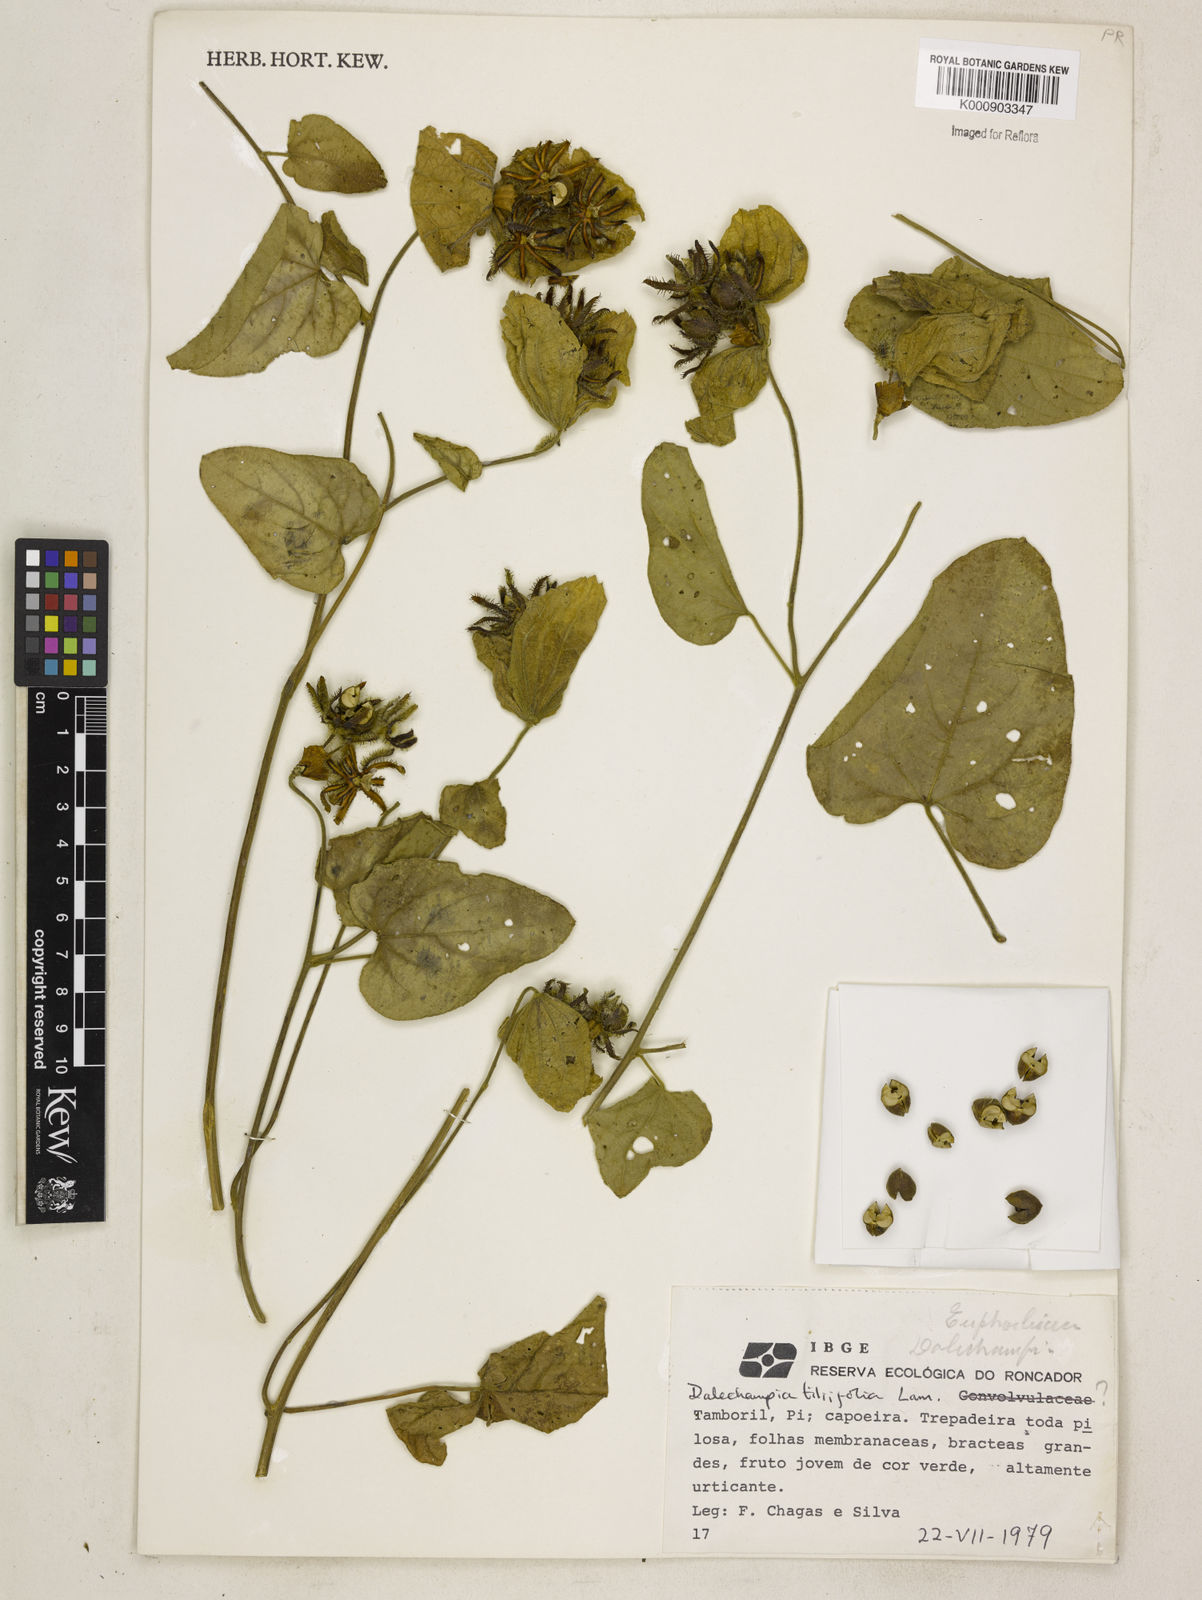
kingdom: Plantae
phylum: Tracheophyta
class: Magnoliopsida
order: Malpighiales
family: Euphorbiaceae
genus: Dalechampia
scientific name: Dalechampia tiliifolia
